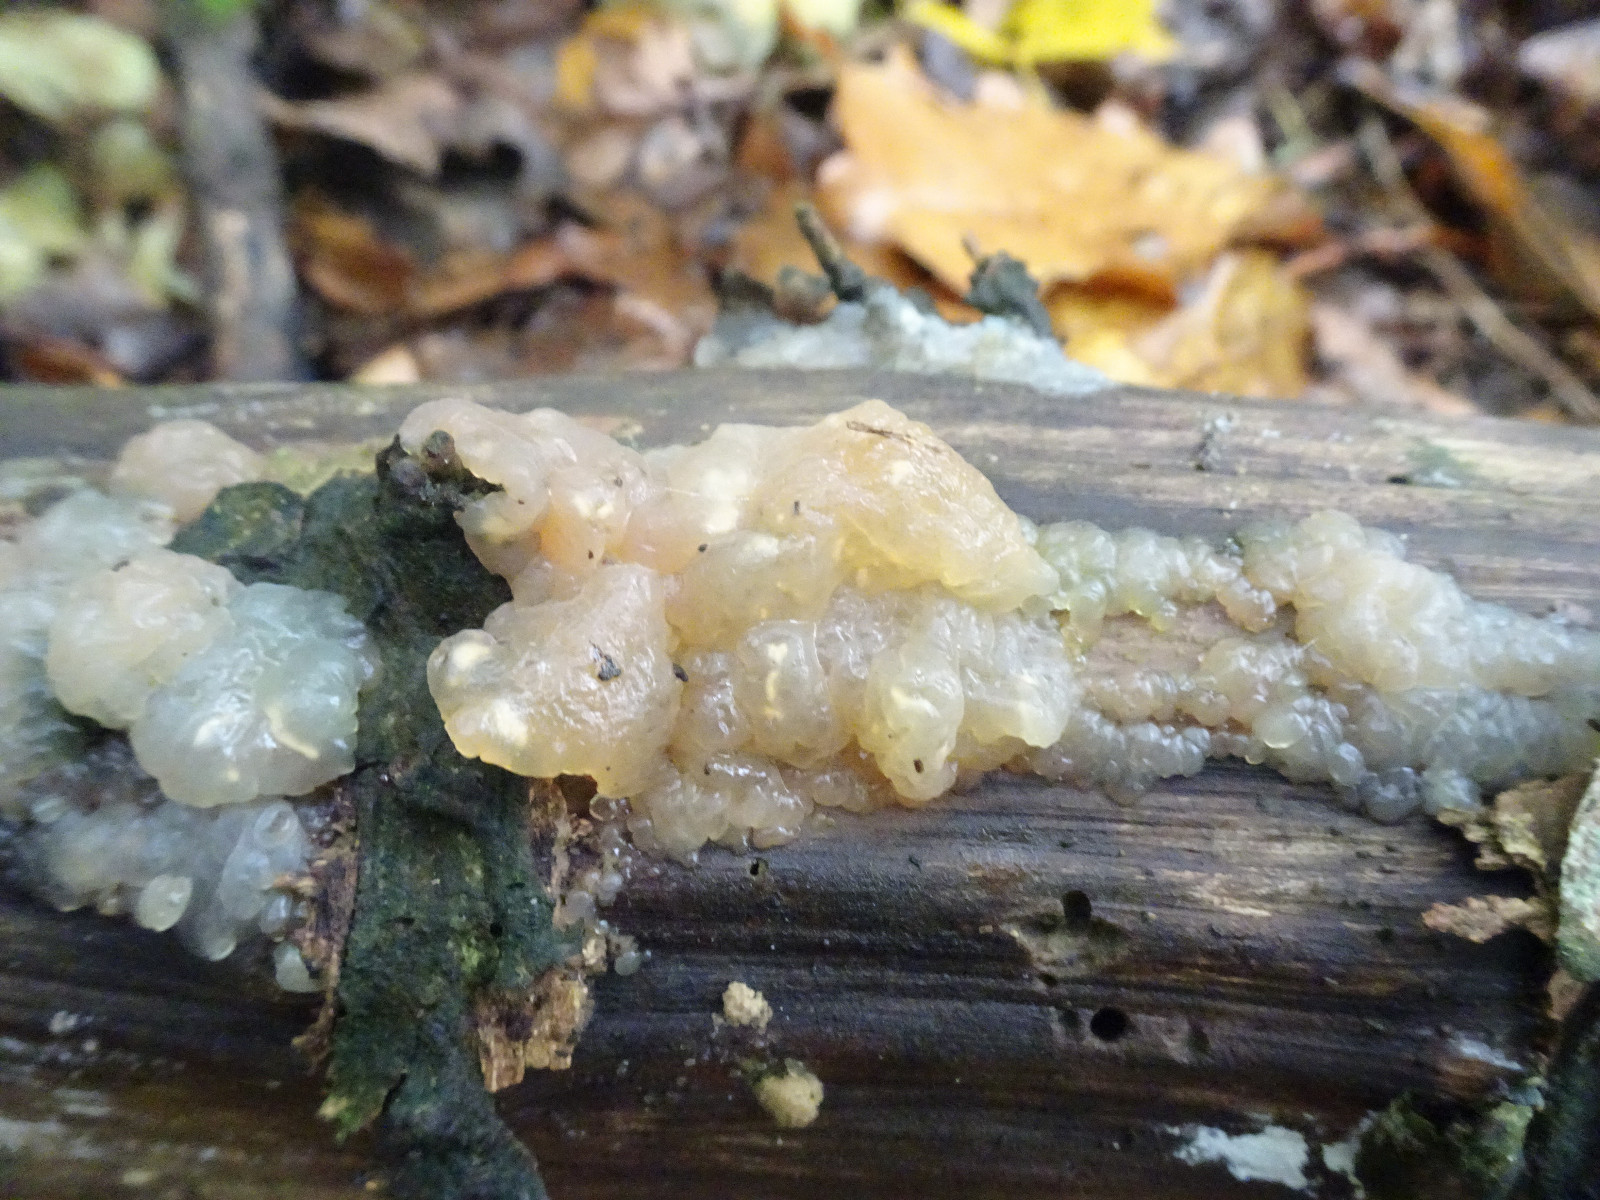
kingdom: Fungi
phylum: Basidiomycota
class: Agaricomycetes
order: Auriculariales
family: Hyaloriaceae
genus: Myxarium
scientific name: Myxarium nucleatum
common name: klar bævretop
